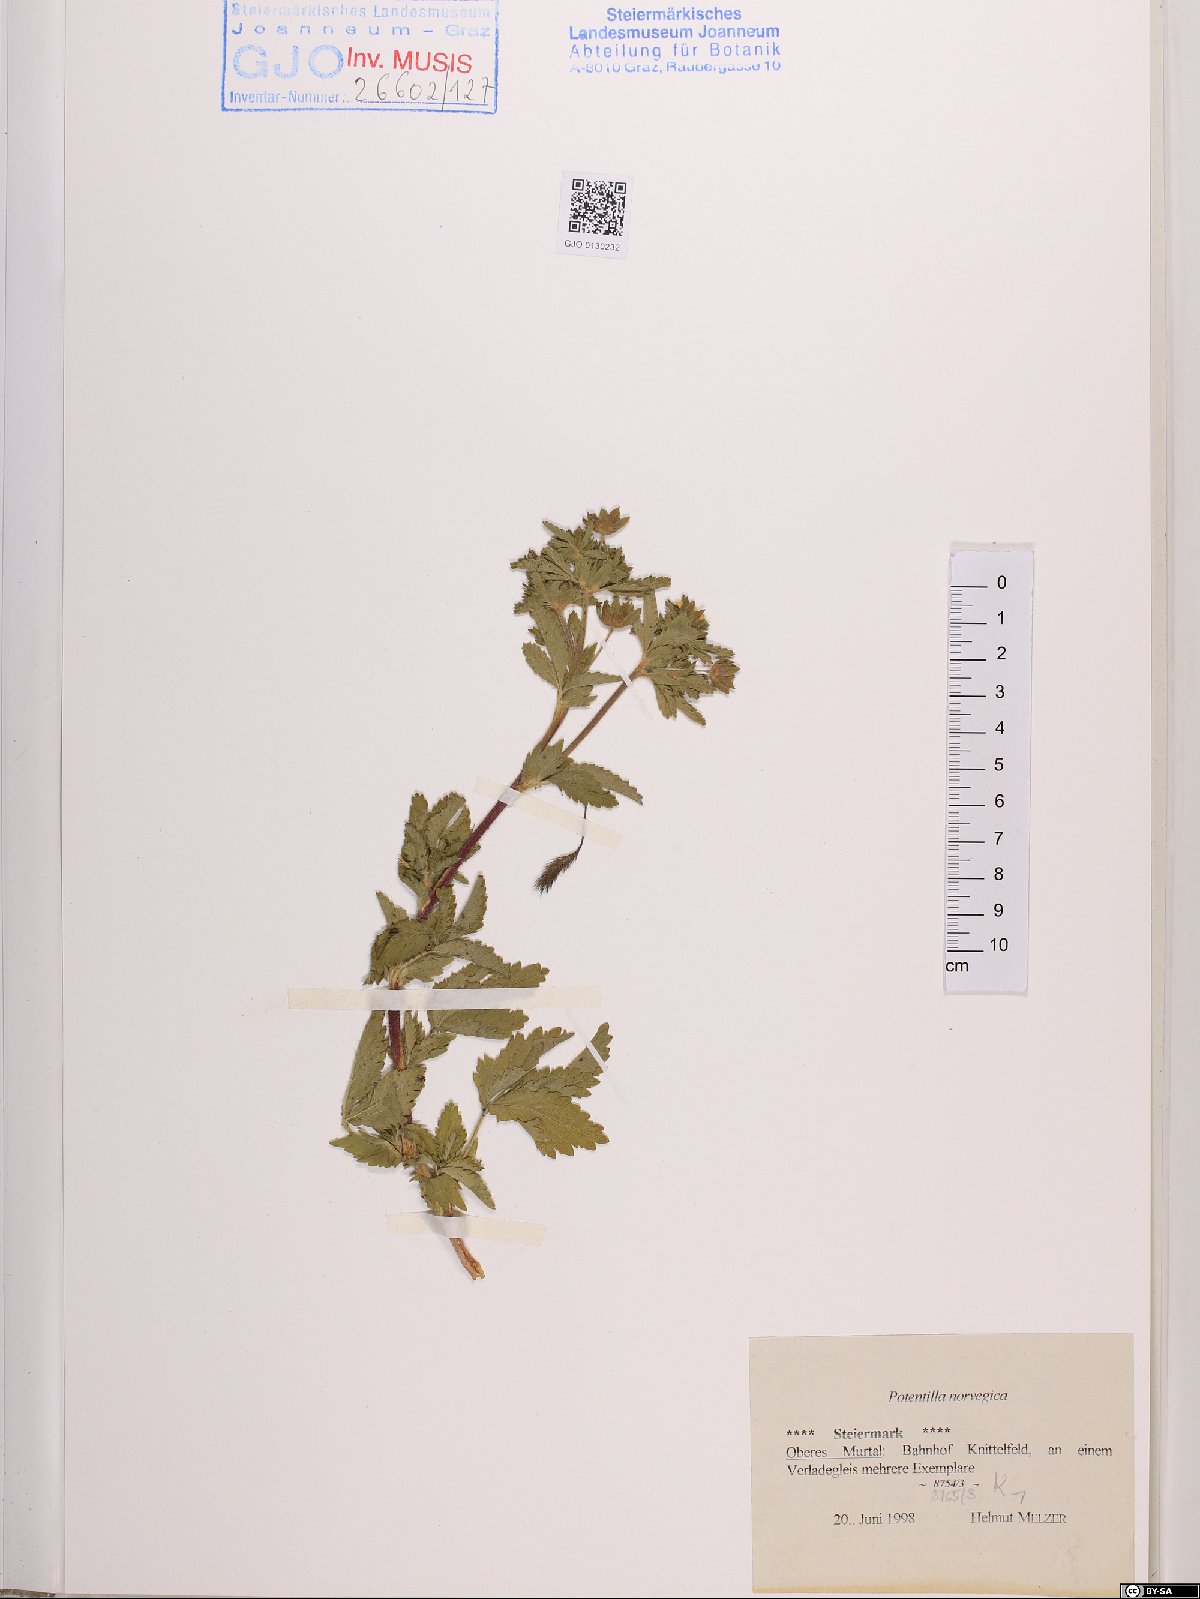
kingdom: Plantae
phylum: Tracheophyta
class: Magnoliopsida
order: Rosales
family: Rosaceae
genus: Potentilla
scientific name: Potentilla norvegica
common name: Ternate-leaved cinquefoil
